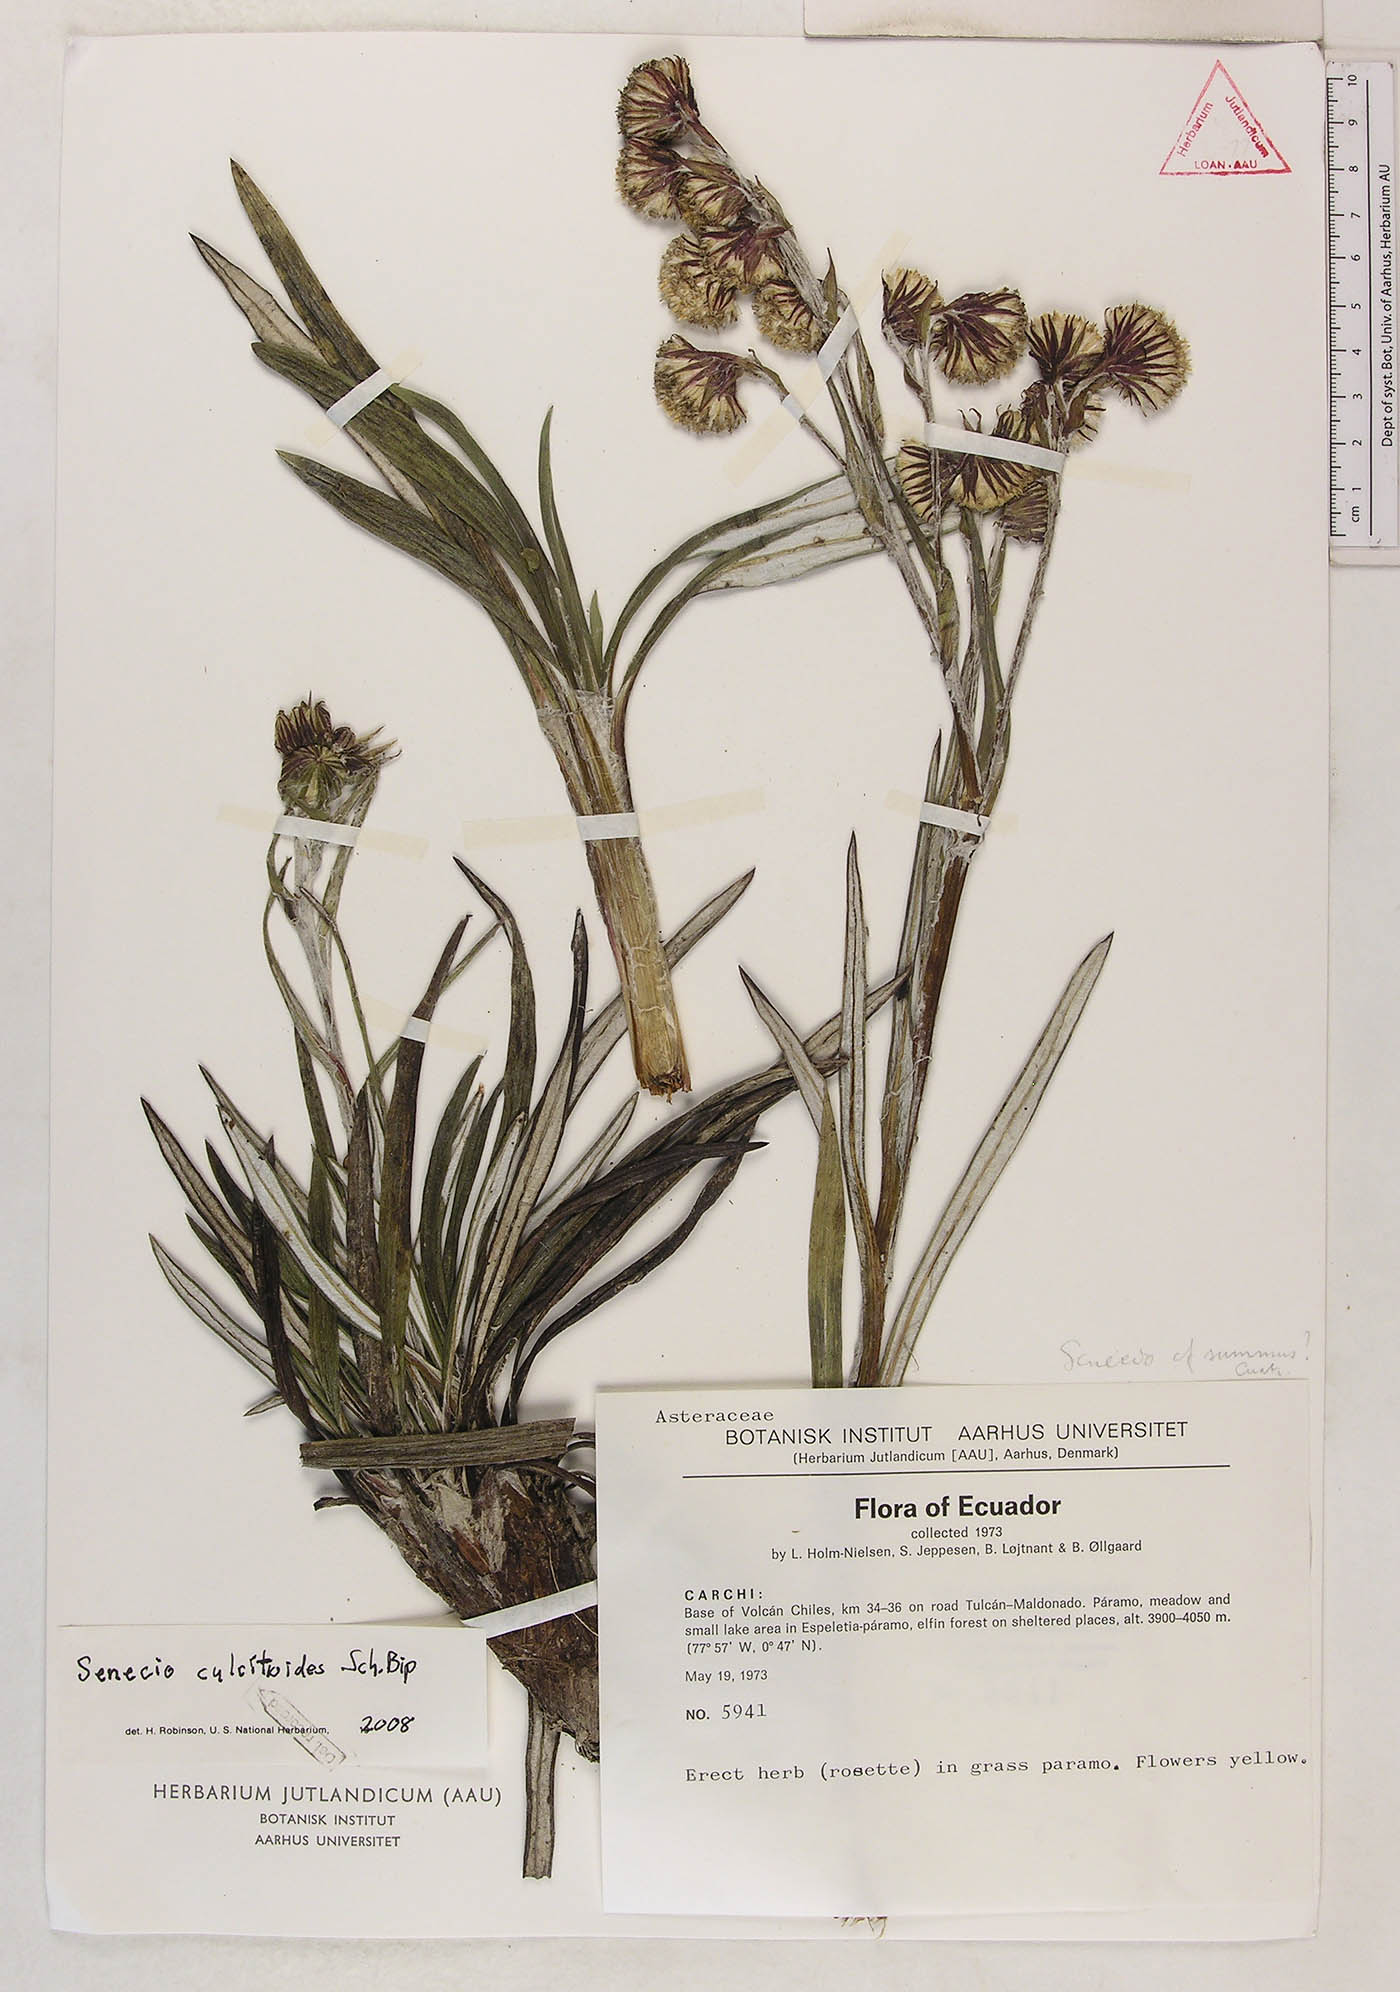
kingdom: Plantae
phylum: Tracheophyta
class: Magnoliopsida
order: Asterales
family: Asteraceae
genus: Senecio
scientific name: Senecio comosus
